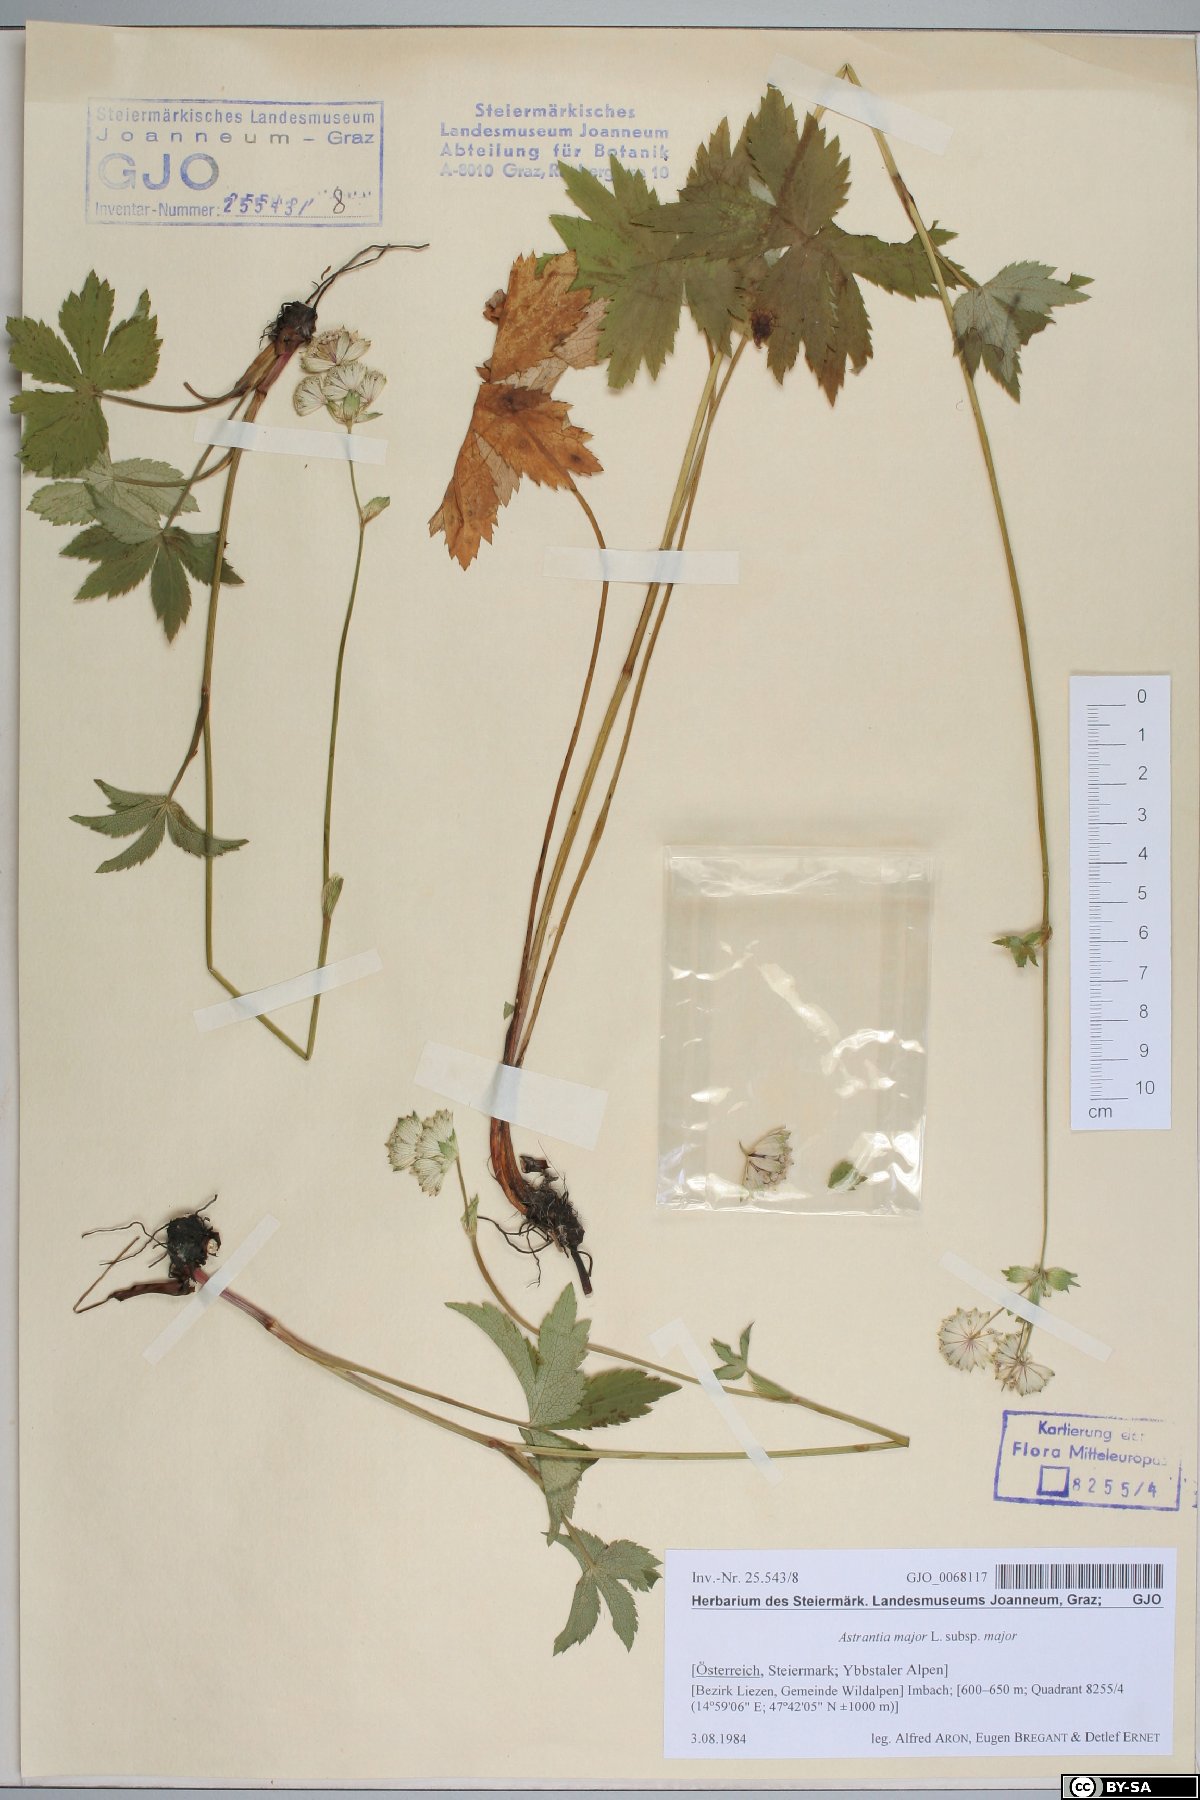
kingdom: Plantae
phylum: Tracheophyta
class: Magnoliopsida
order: Apiales
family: Apiaceae
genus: Astrantia
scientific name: Astrantia major
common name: Greater masterwort
